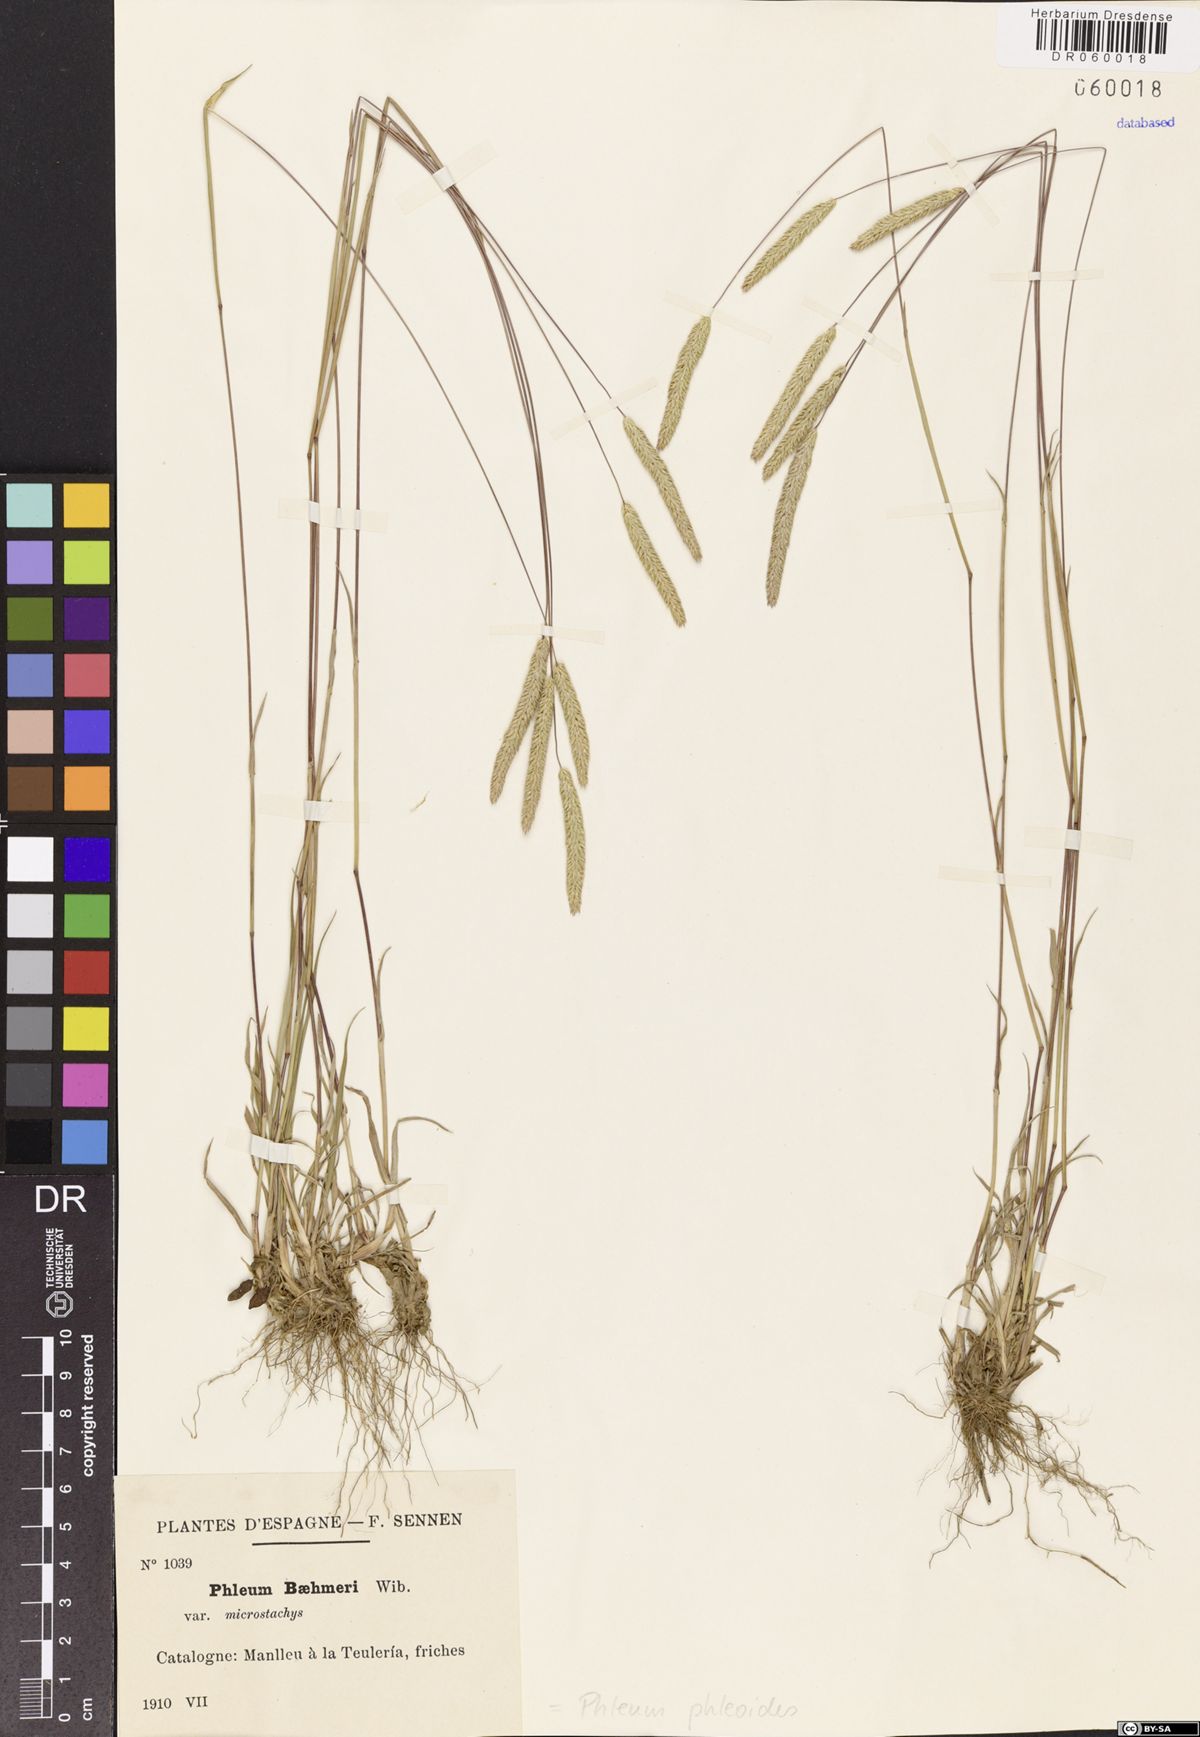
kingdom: Plantae
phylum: Tracheophyta
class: Liliopsida
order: Poales
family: Poaceae
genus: Phleum
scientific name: Phleum phleoides
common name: Purple-stem cat's-tail
